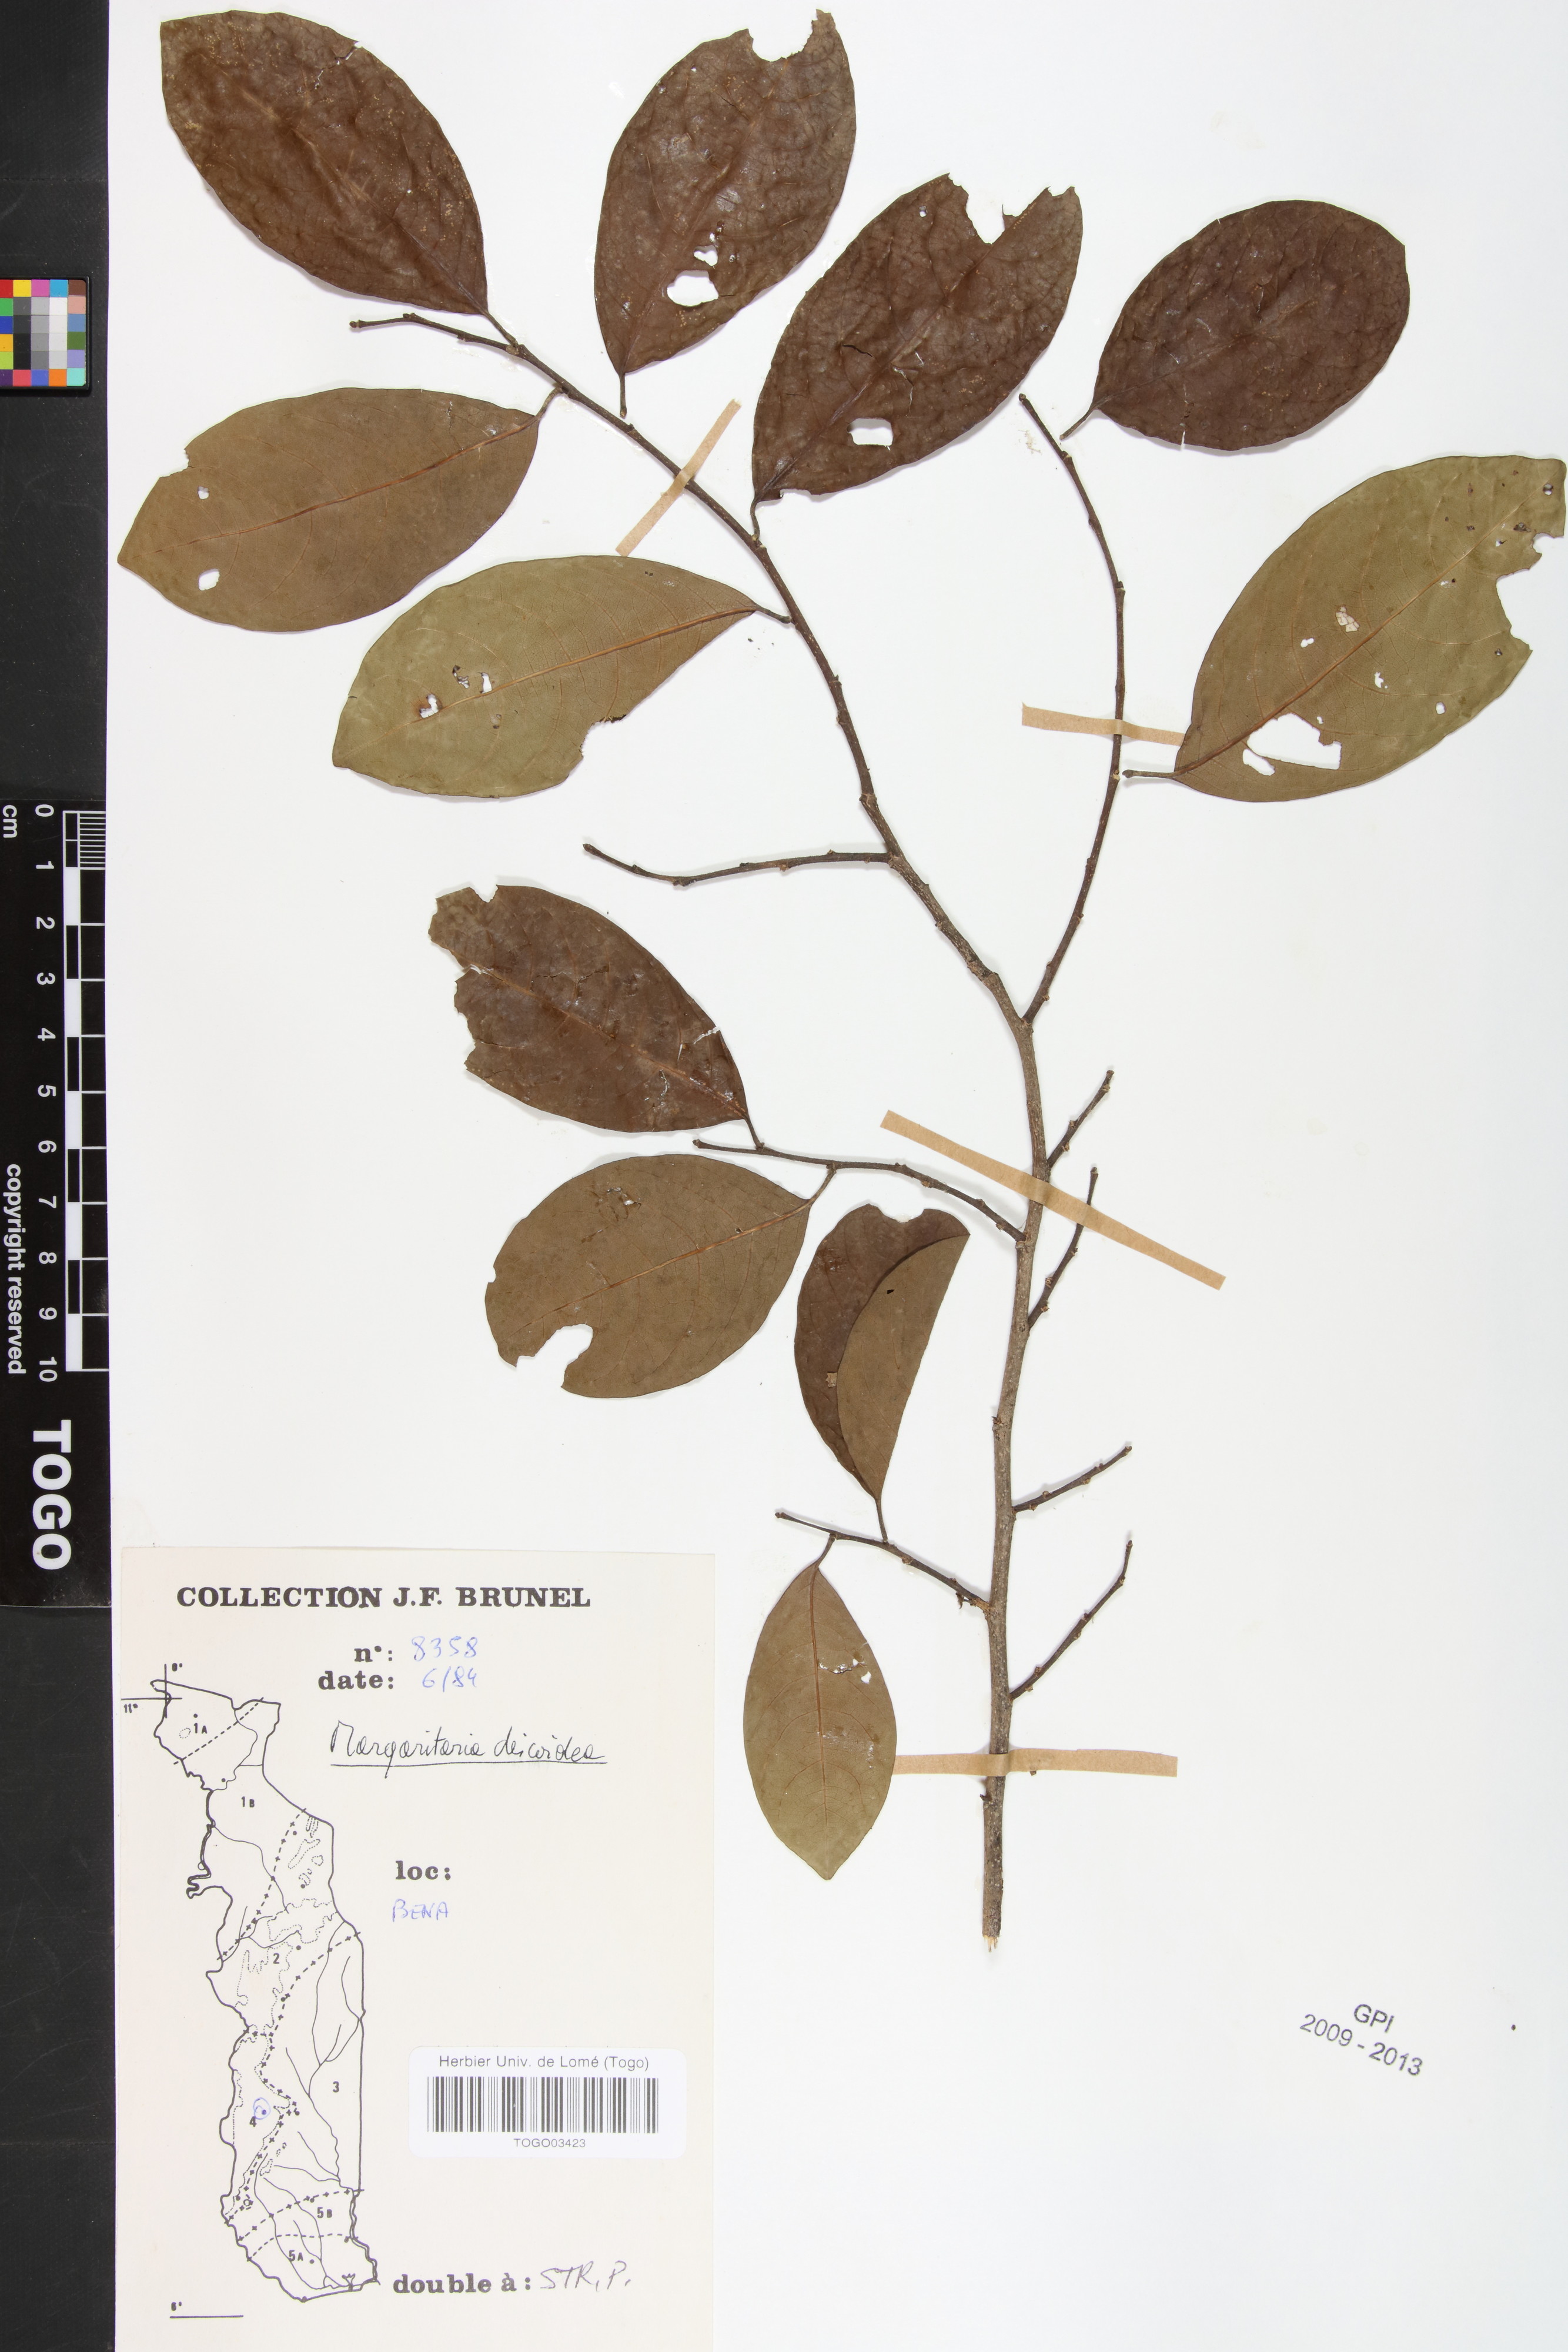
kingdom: Plantae
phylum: Tracheophyta
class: Magnoliopsida
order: Malpighiales
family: Phyllanthaceae
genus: Margaritaria
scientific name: Margaritaria discoidea
